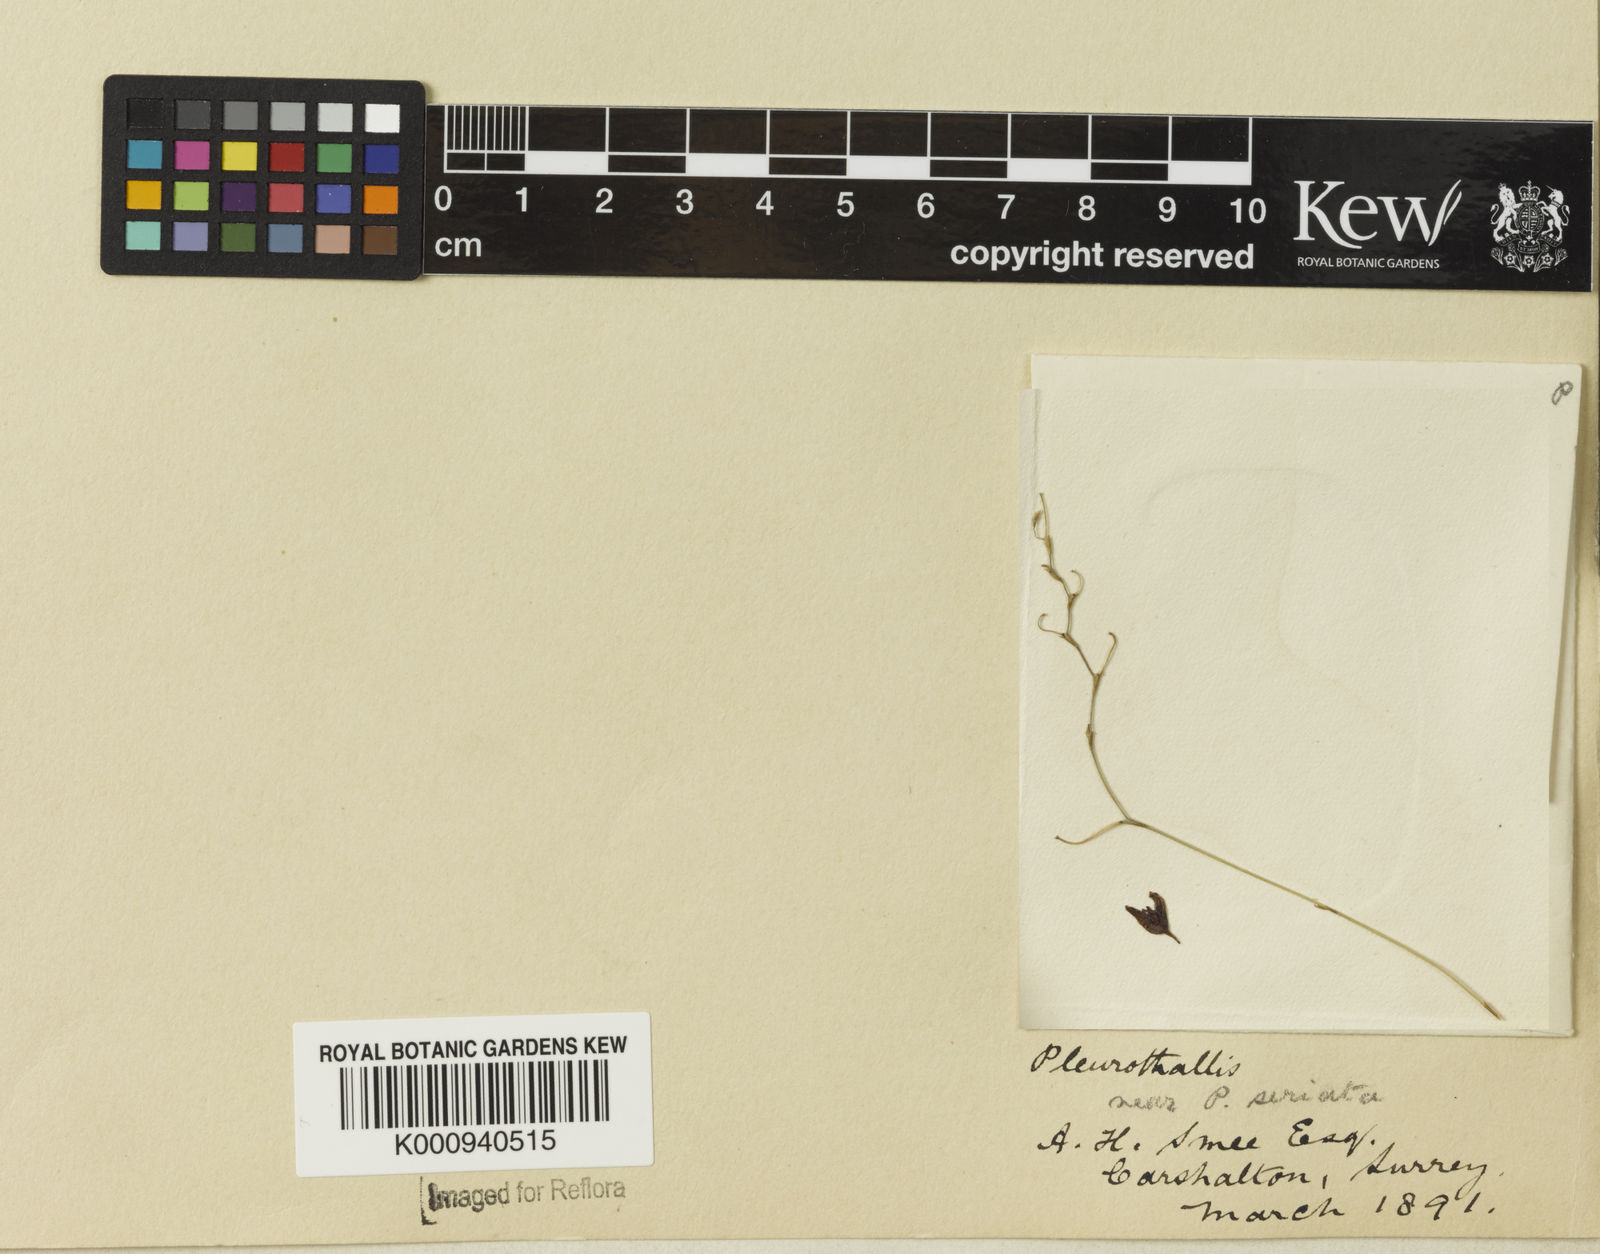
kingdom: Plantae
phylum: Tracheophyta
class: Liliopsida
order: Asparagales
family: Orchidaceae
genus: Pabstiella
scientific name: Pabstiella seriata
